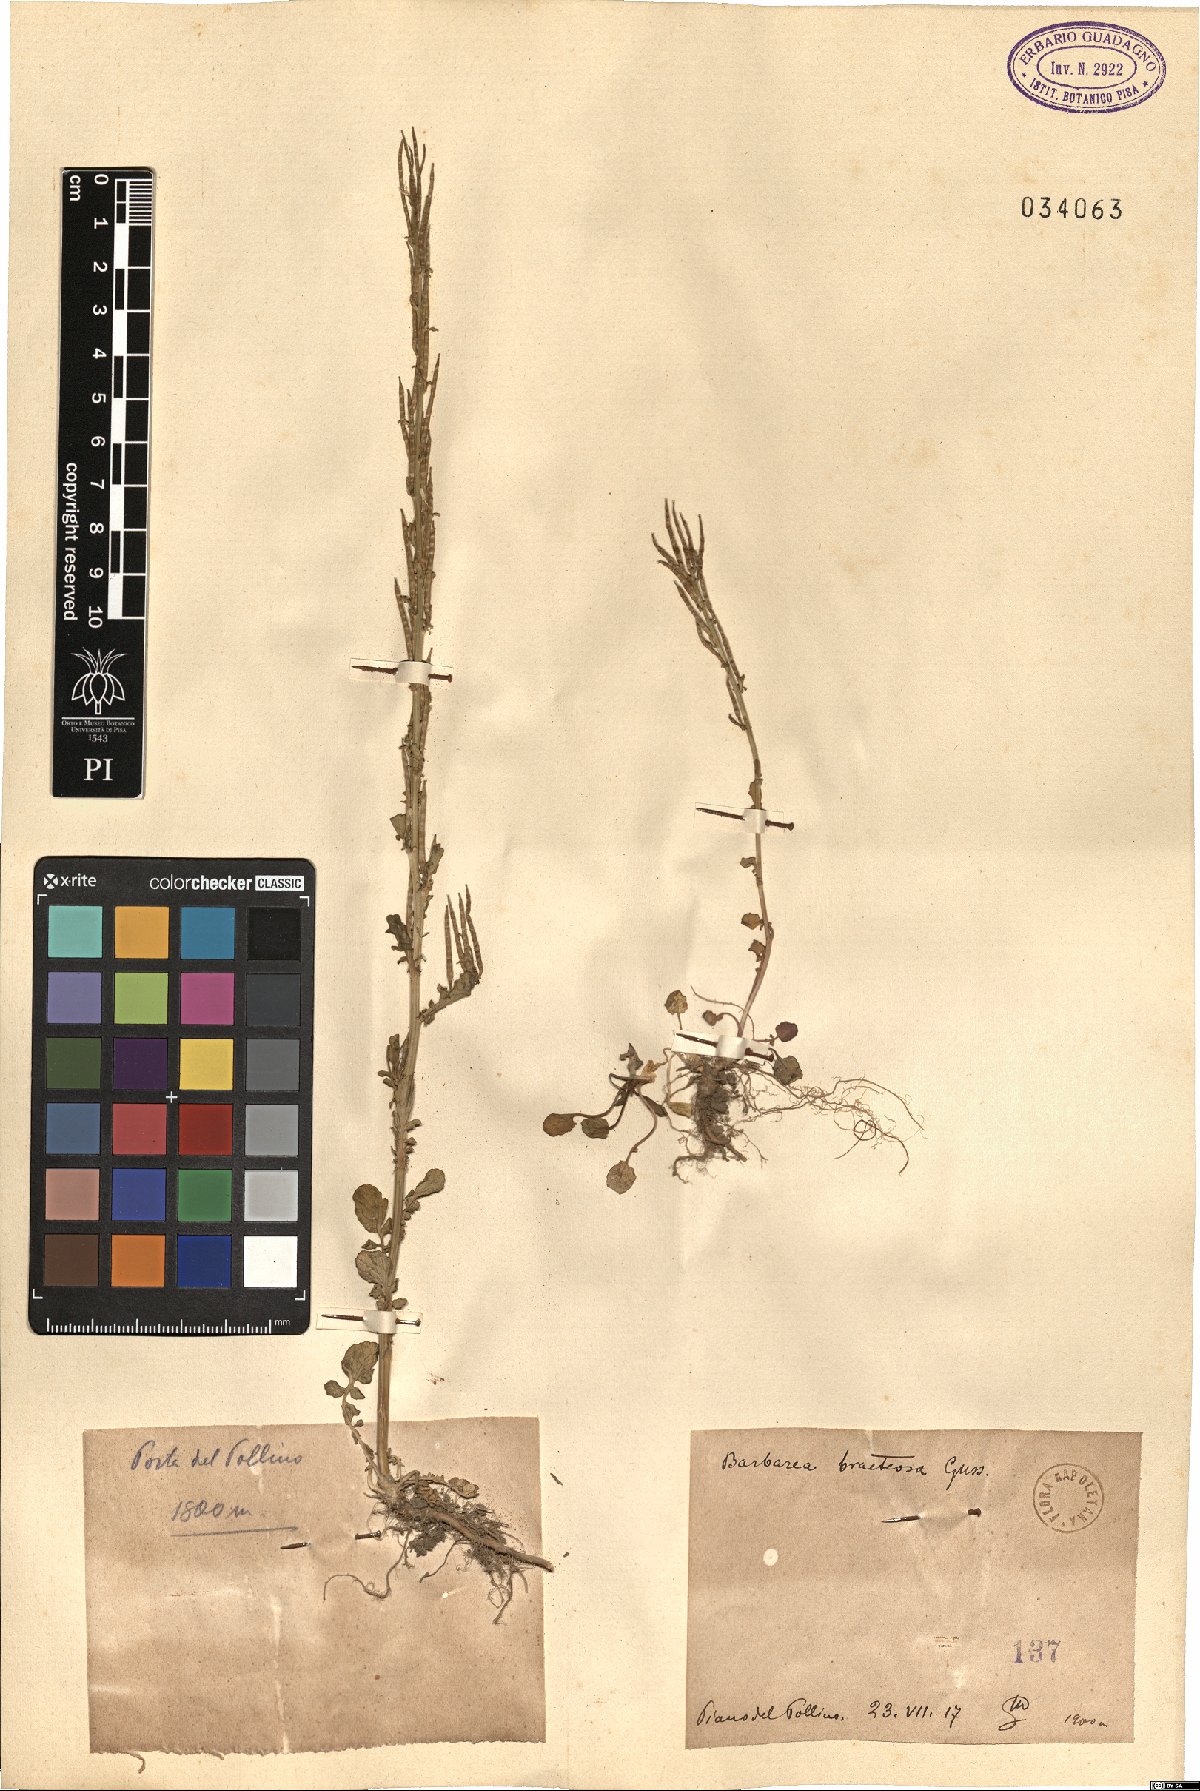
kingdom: Plantae
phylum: Tracheophyta
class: Magnoliopsida
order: Brassicales
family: Brassicaceae
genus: Barbarea
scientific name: Barbarea bracteosa
